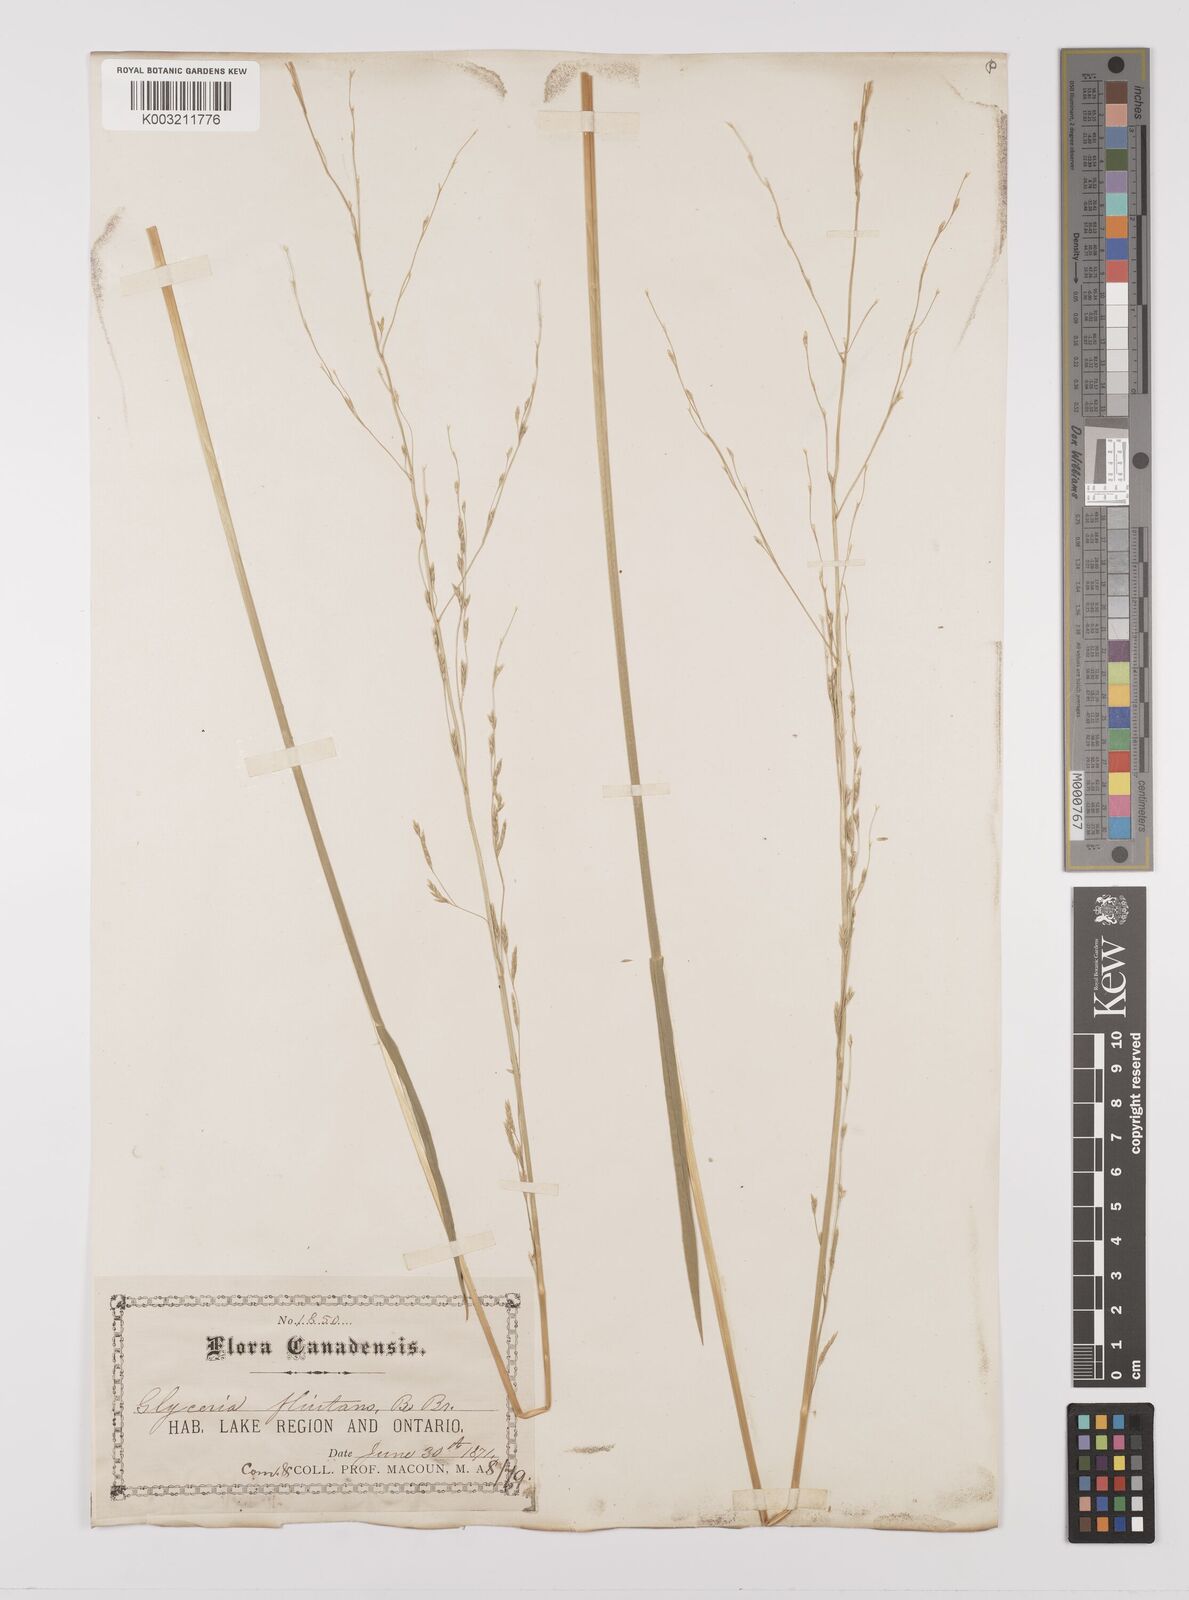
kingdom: Plantae
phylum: Tracheophyta
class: Liliopsida
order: Poales
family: Poaceae
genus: Glyceria
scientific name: Glyceria borealis
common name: Boreal glyceria
